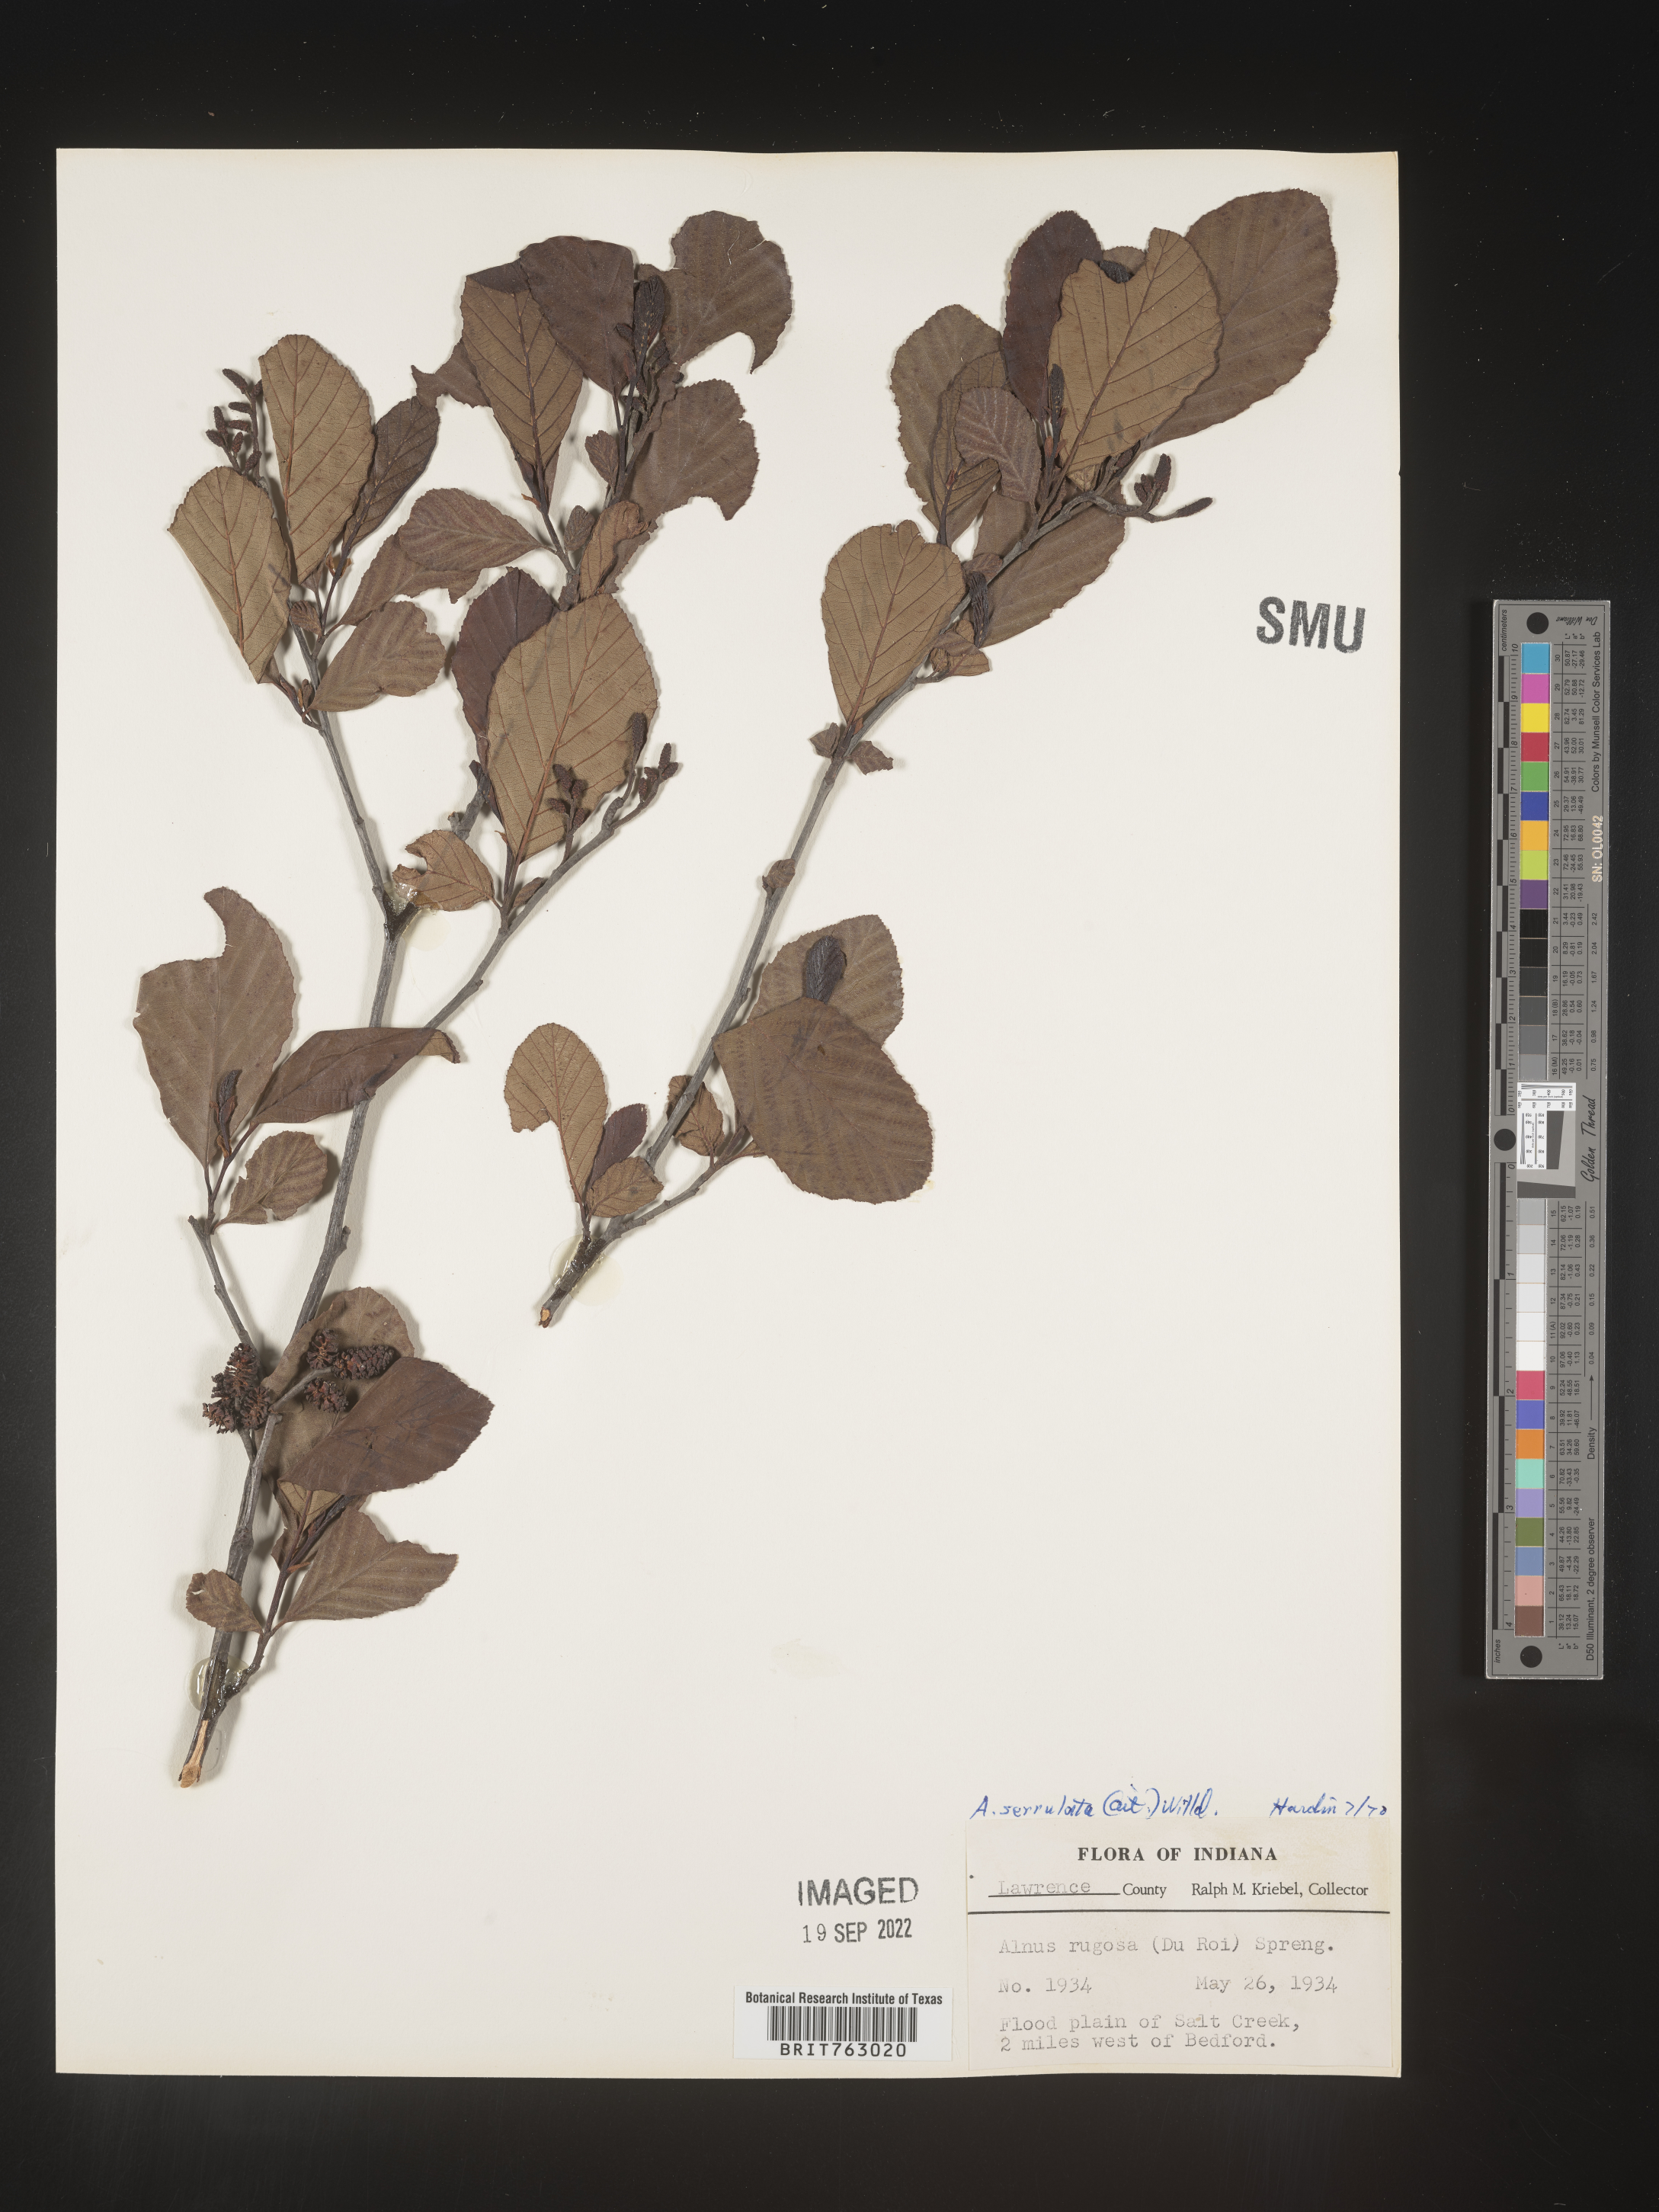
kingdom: Plantae
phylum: Tracheophyta
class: Magnoliopsida
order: Fagales
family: Betulaceae
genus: Alnus
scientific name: Alnus serrulata
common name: Hazel alder
